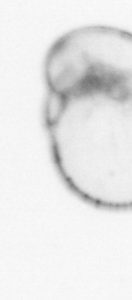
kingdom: Chromista
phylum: Myzozoa
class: Dinophyceae
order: Noctilucales
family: Noctilucaceae
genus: Noctiluca
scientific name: Noctiluca scintillans
